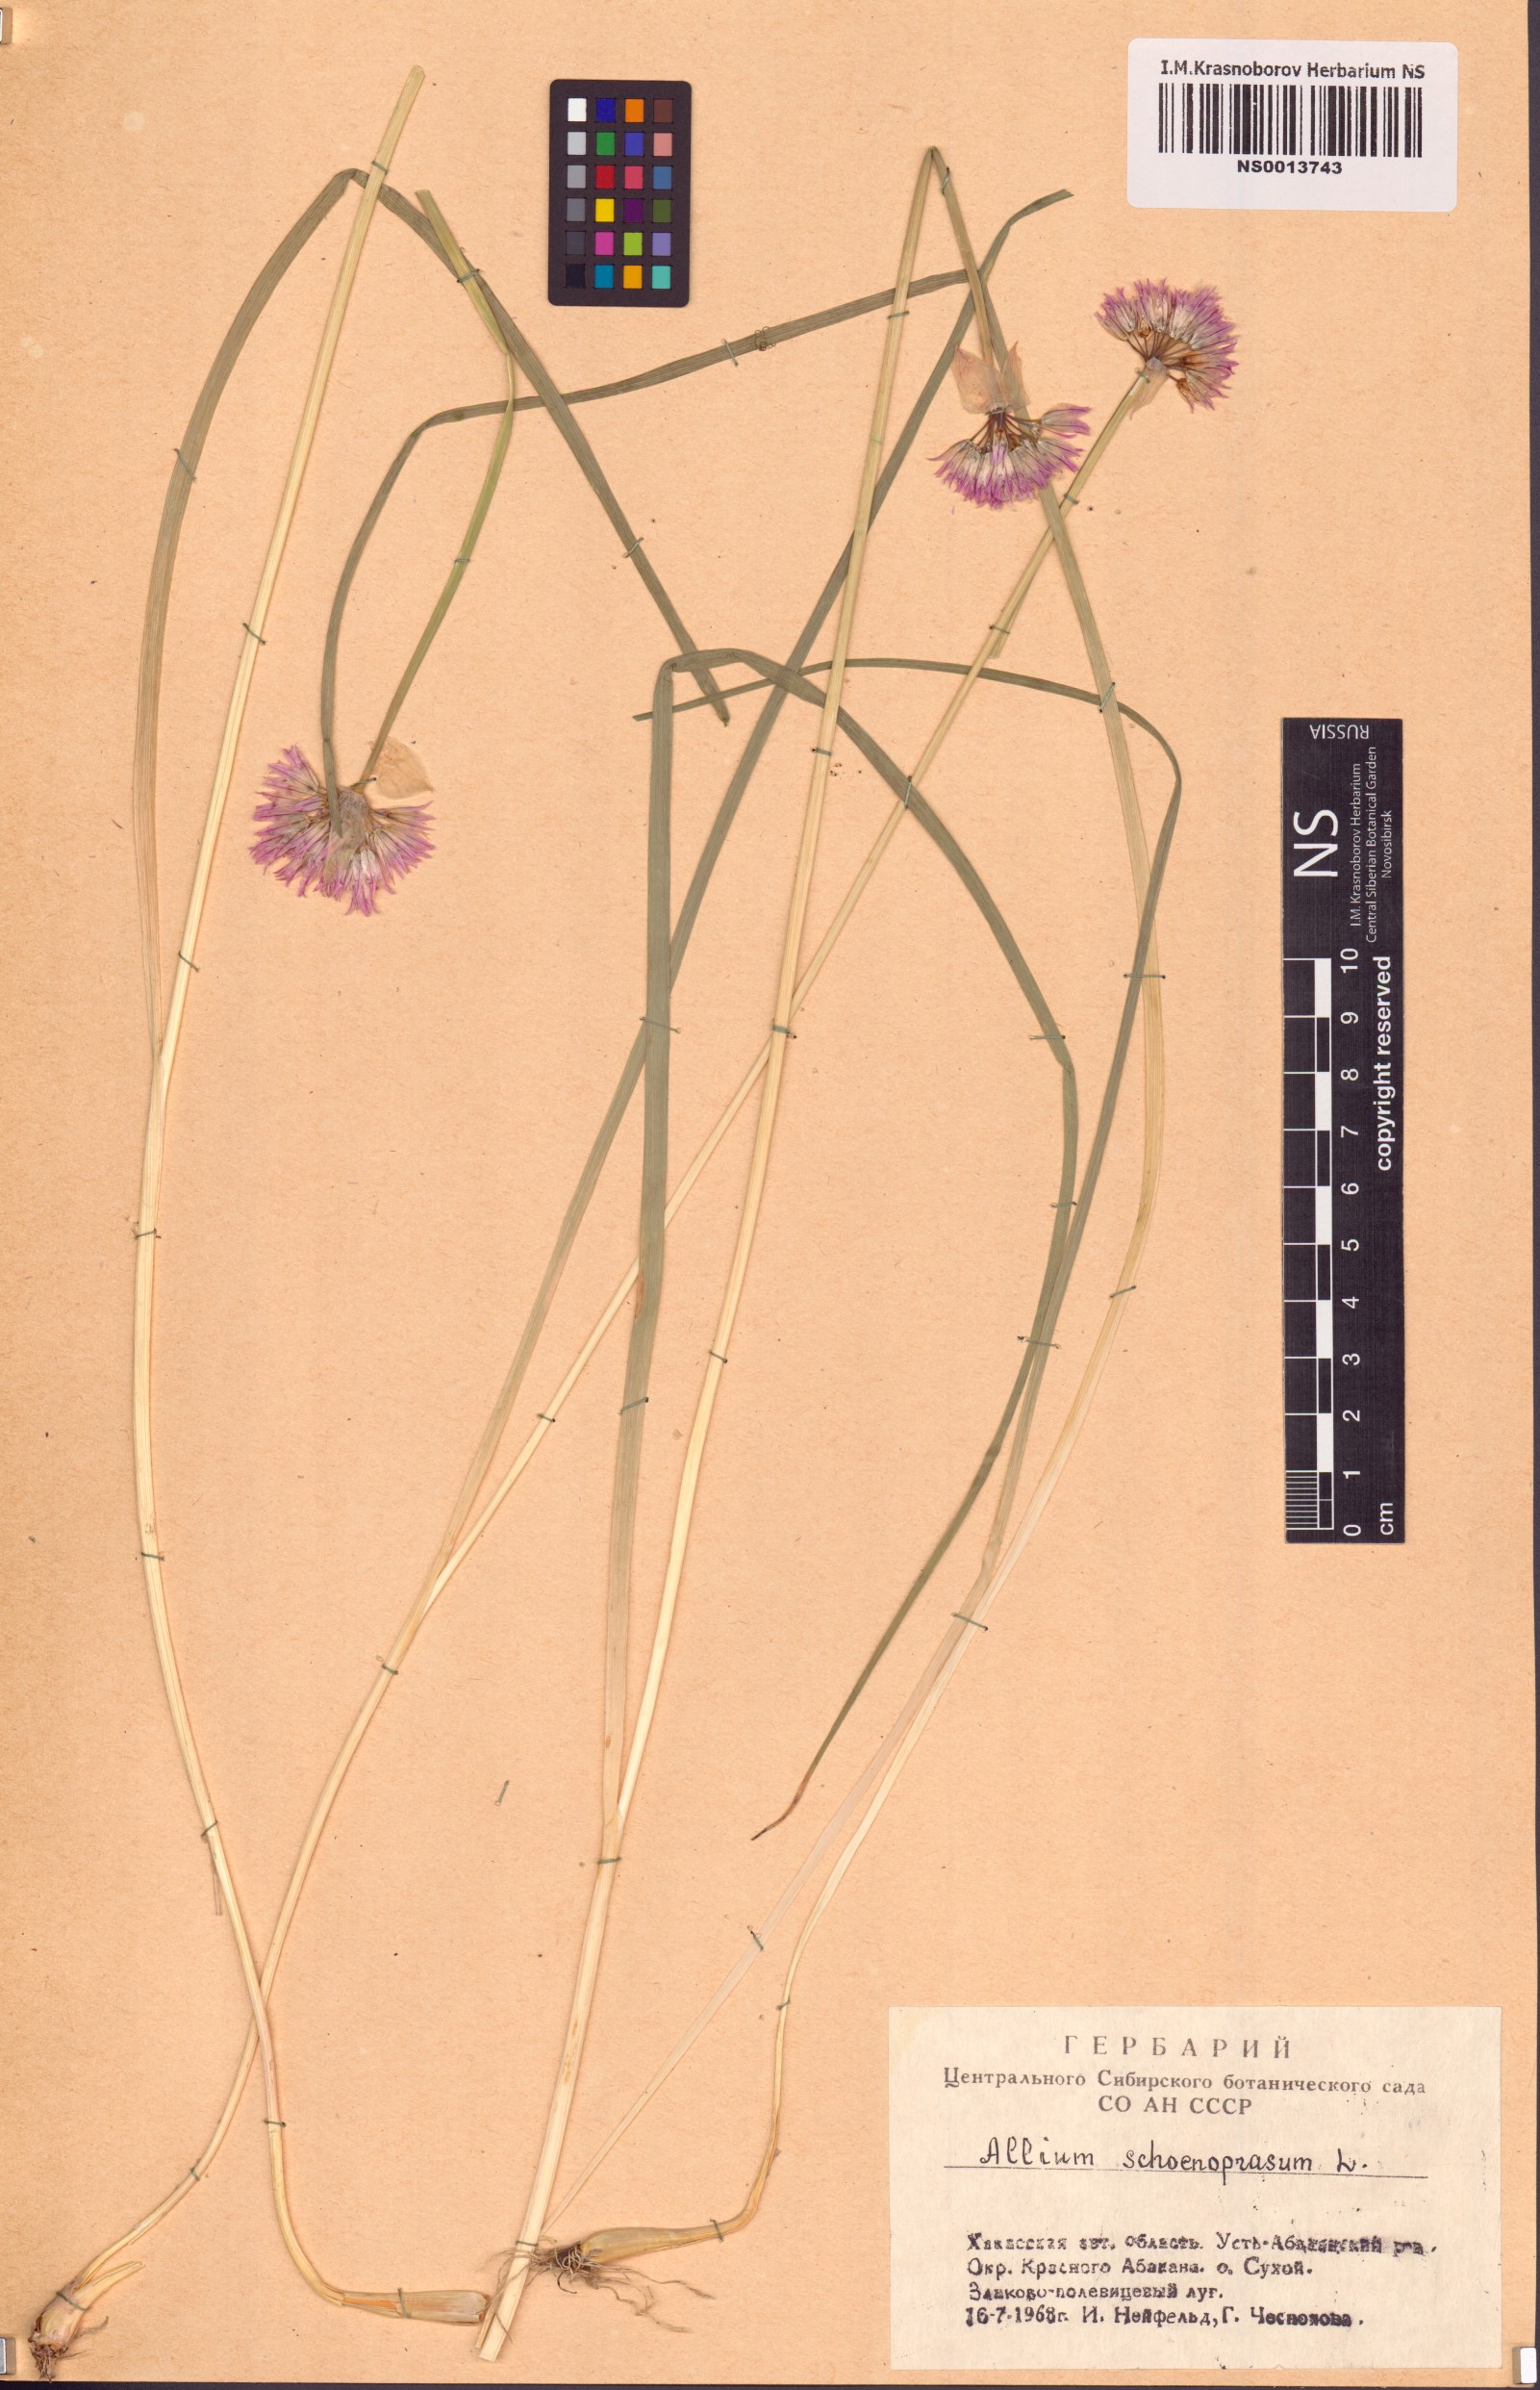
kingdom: Plantae
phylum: Tracheophyta
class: Liliopsida
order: Asparagales
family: Amaryllidaceae
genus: Allium
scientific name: Allium schoenoprasum
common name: Chives
